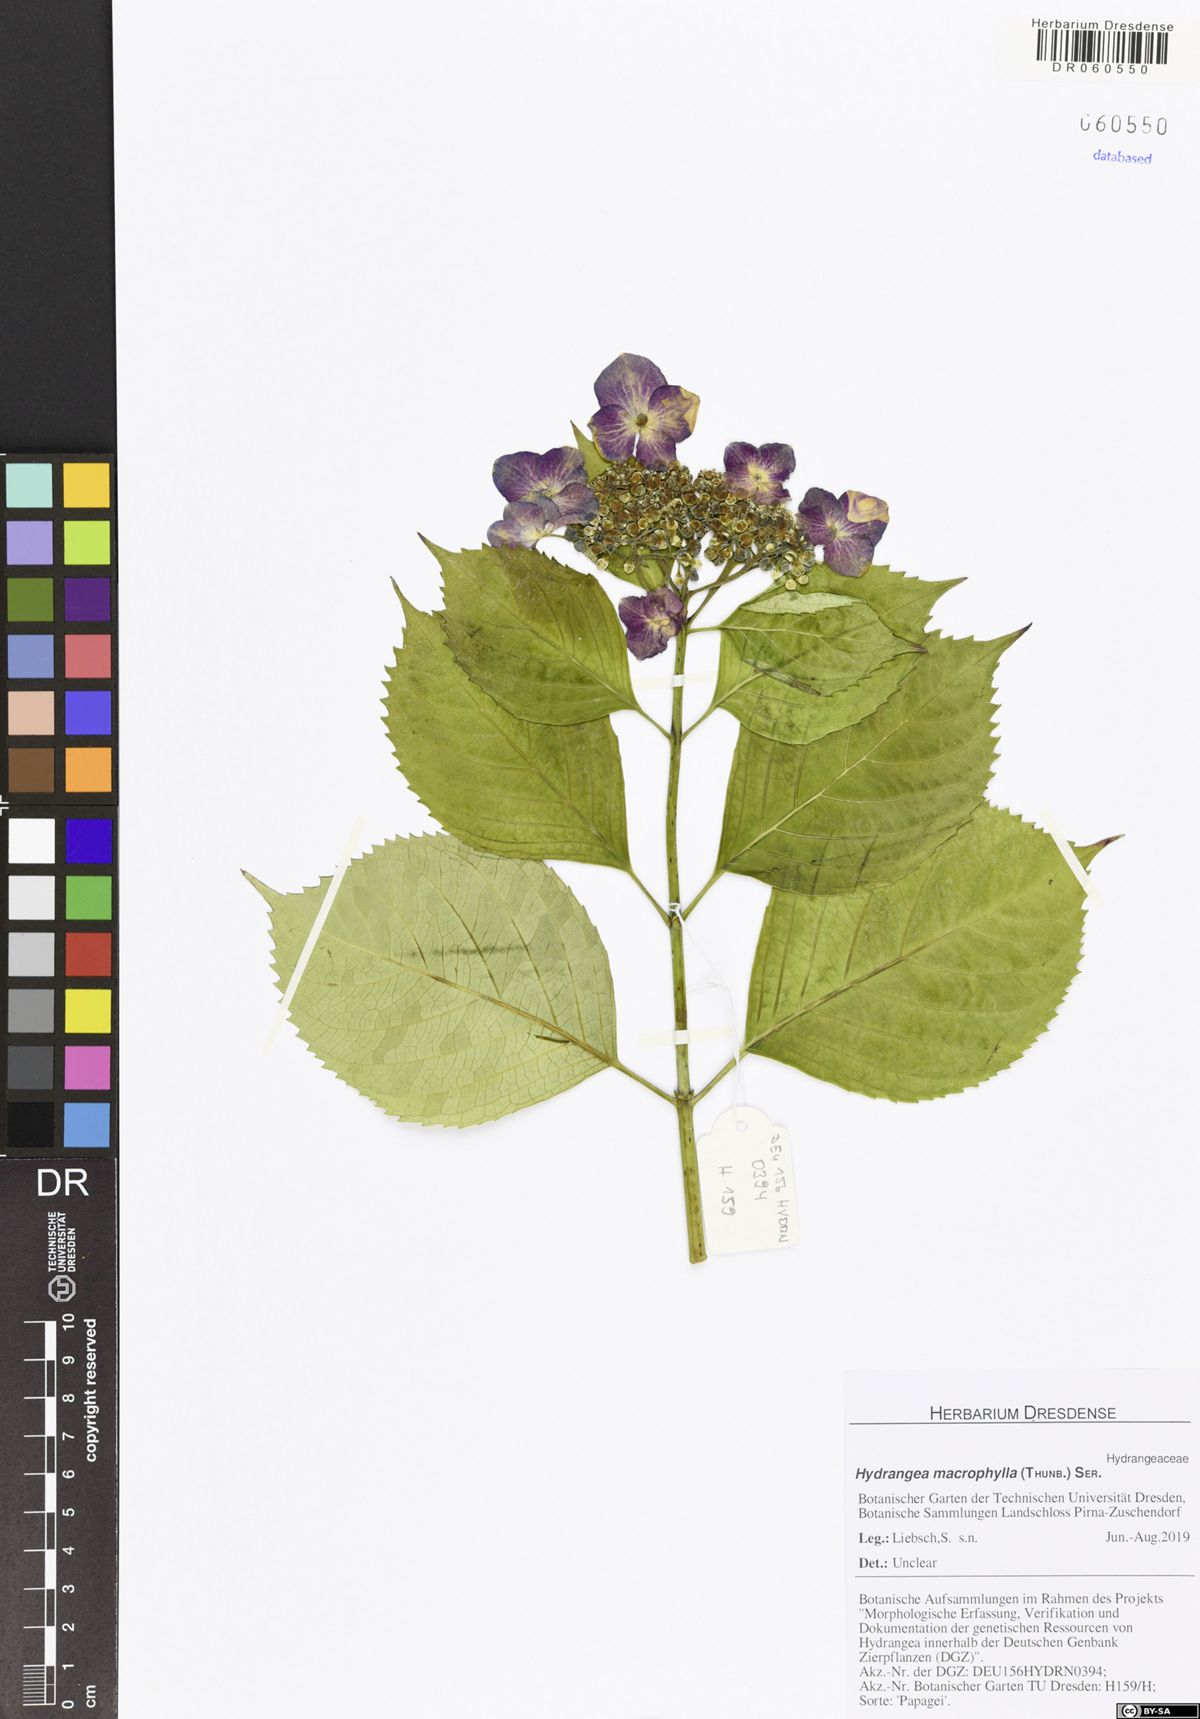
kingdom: Plantae
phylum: Tracheophyta
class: Magnoliopsida
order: Cornales
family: Hydrangeaceae
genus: Hydrangea
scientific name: Hydrangea macrophylla
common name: Hydrangea
